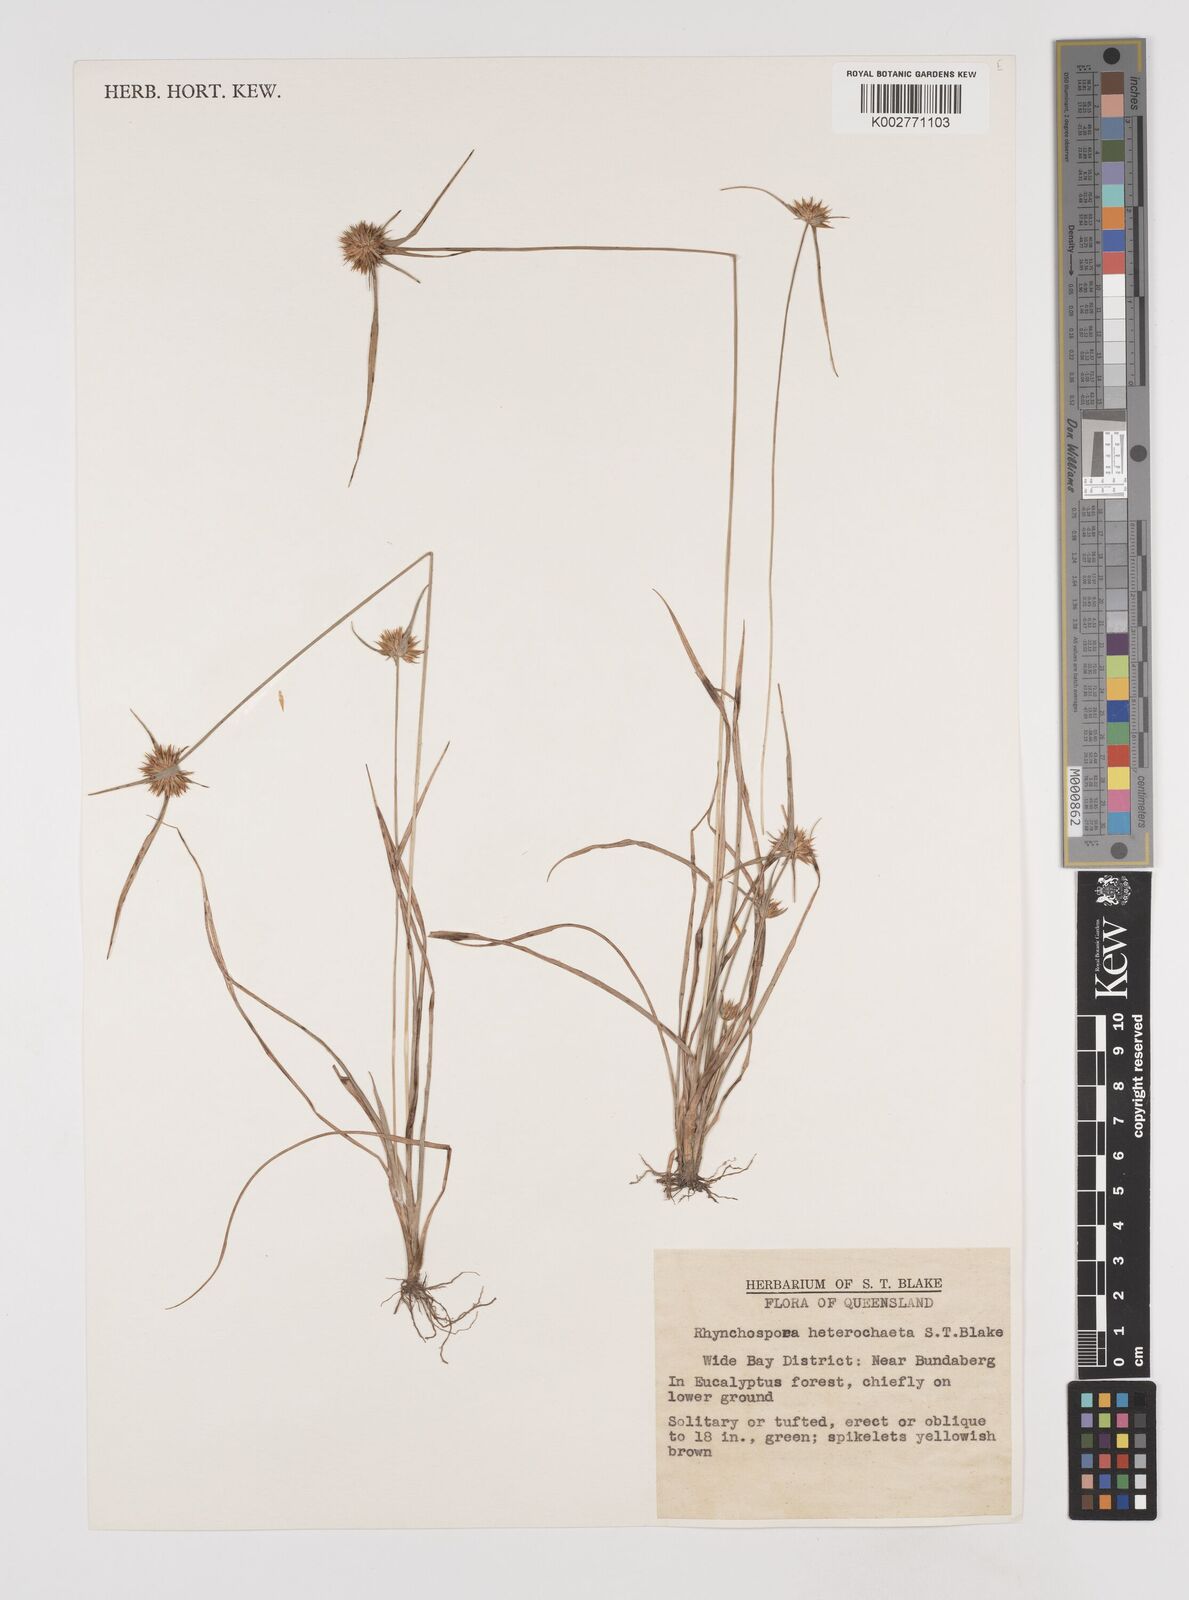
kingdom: Plantae
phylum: Tracheophyta
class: Liliopsida
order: Poales
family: Cyperaceae
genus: Rhynchospora
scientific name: Rhynchospora heterochaeta
